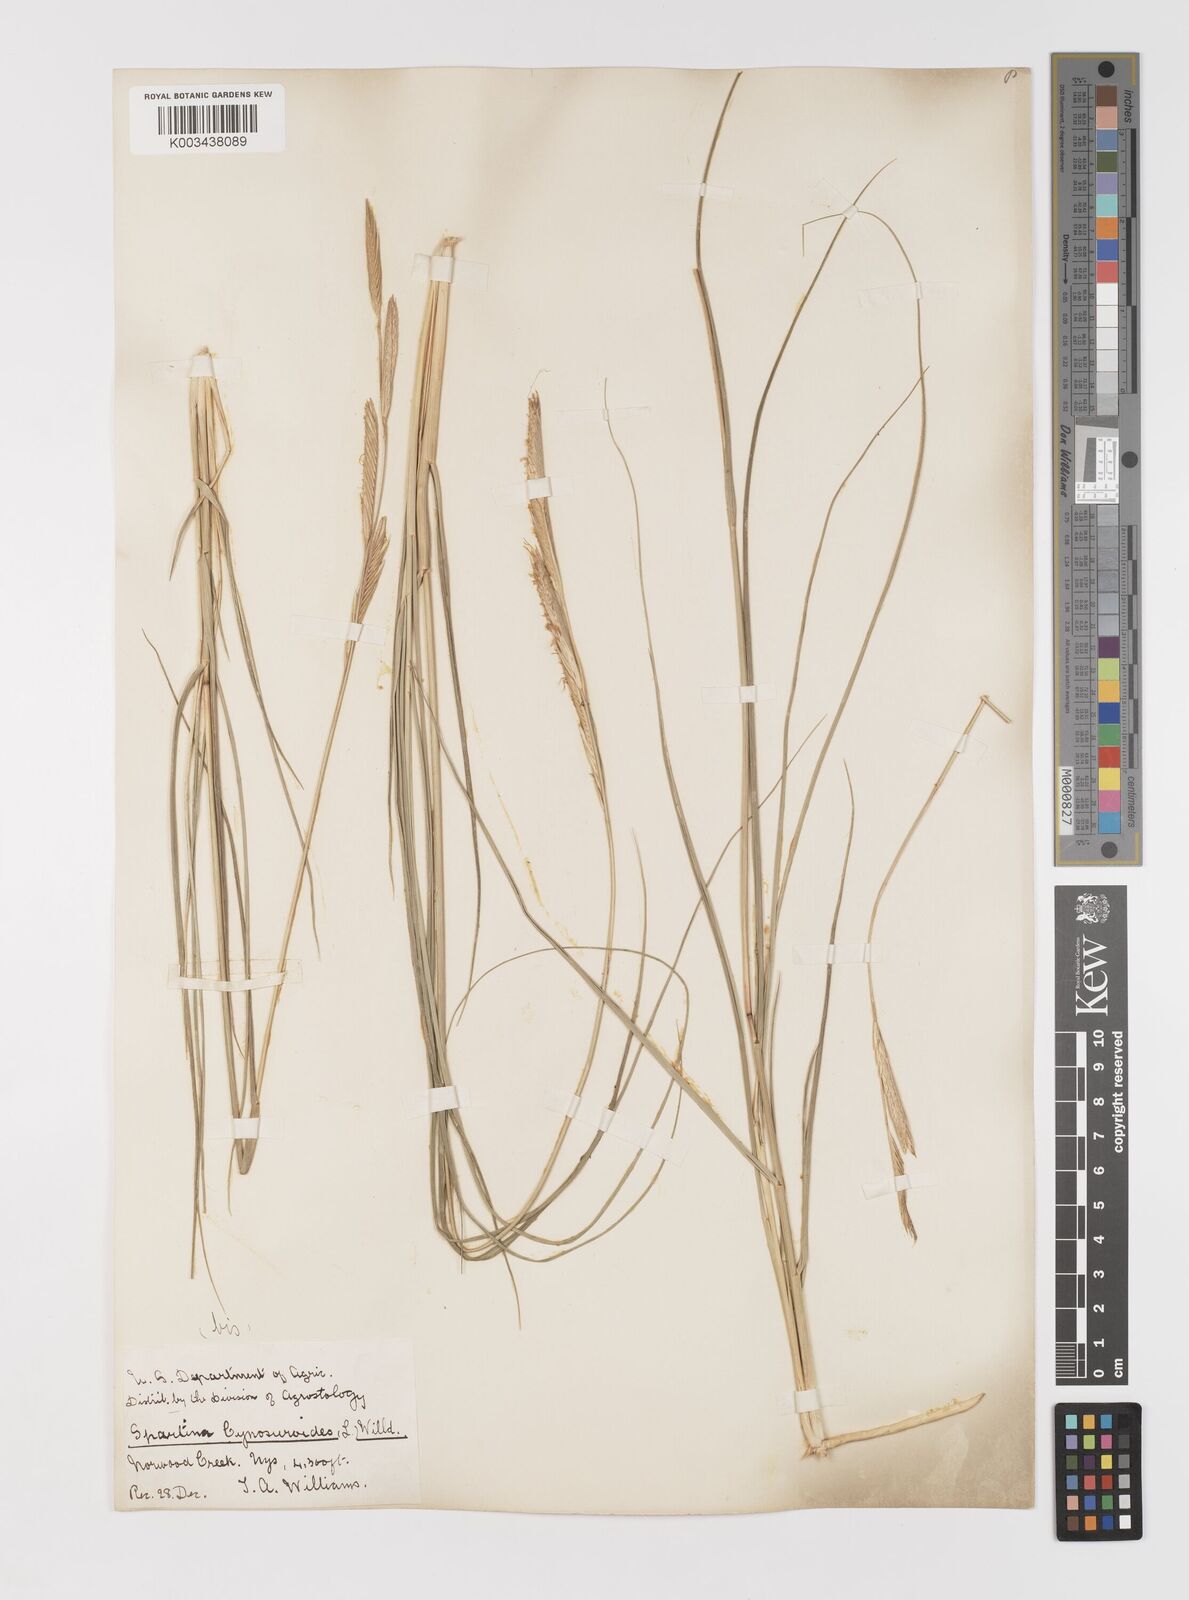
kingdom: Plantae
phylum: Tracheophyta
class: Liliopsida
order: Poales
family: Poaceae
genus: Sporobolus
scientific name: Sporobolus hookerianus
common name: Alkali cordgrass
